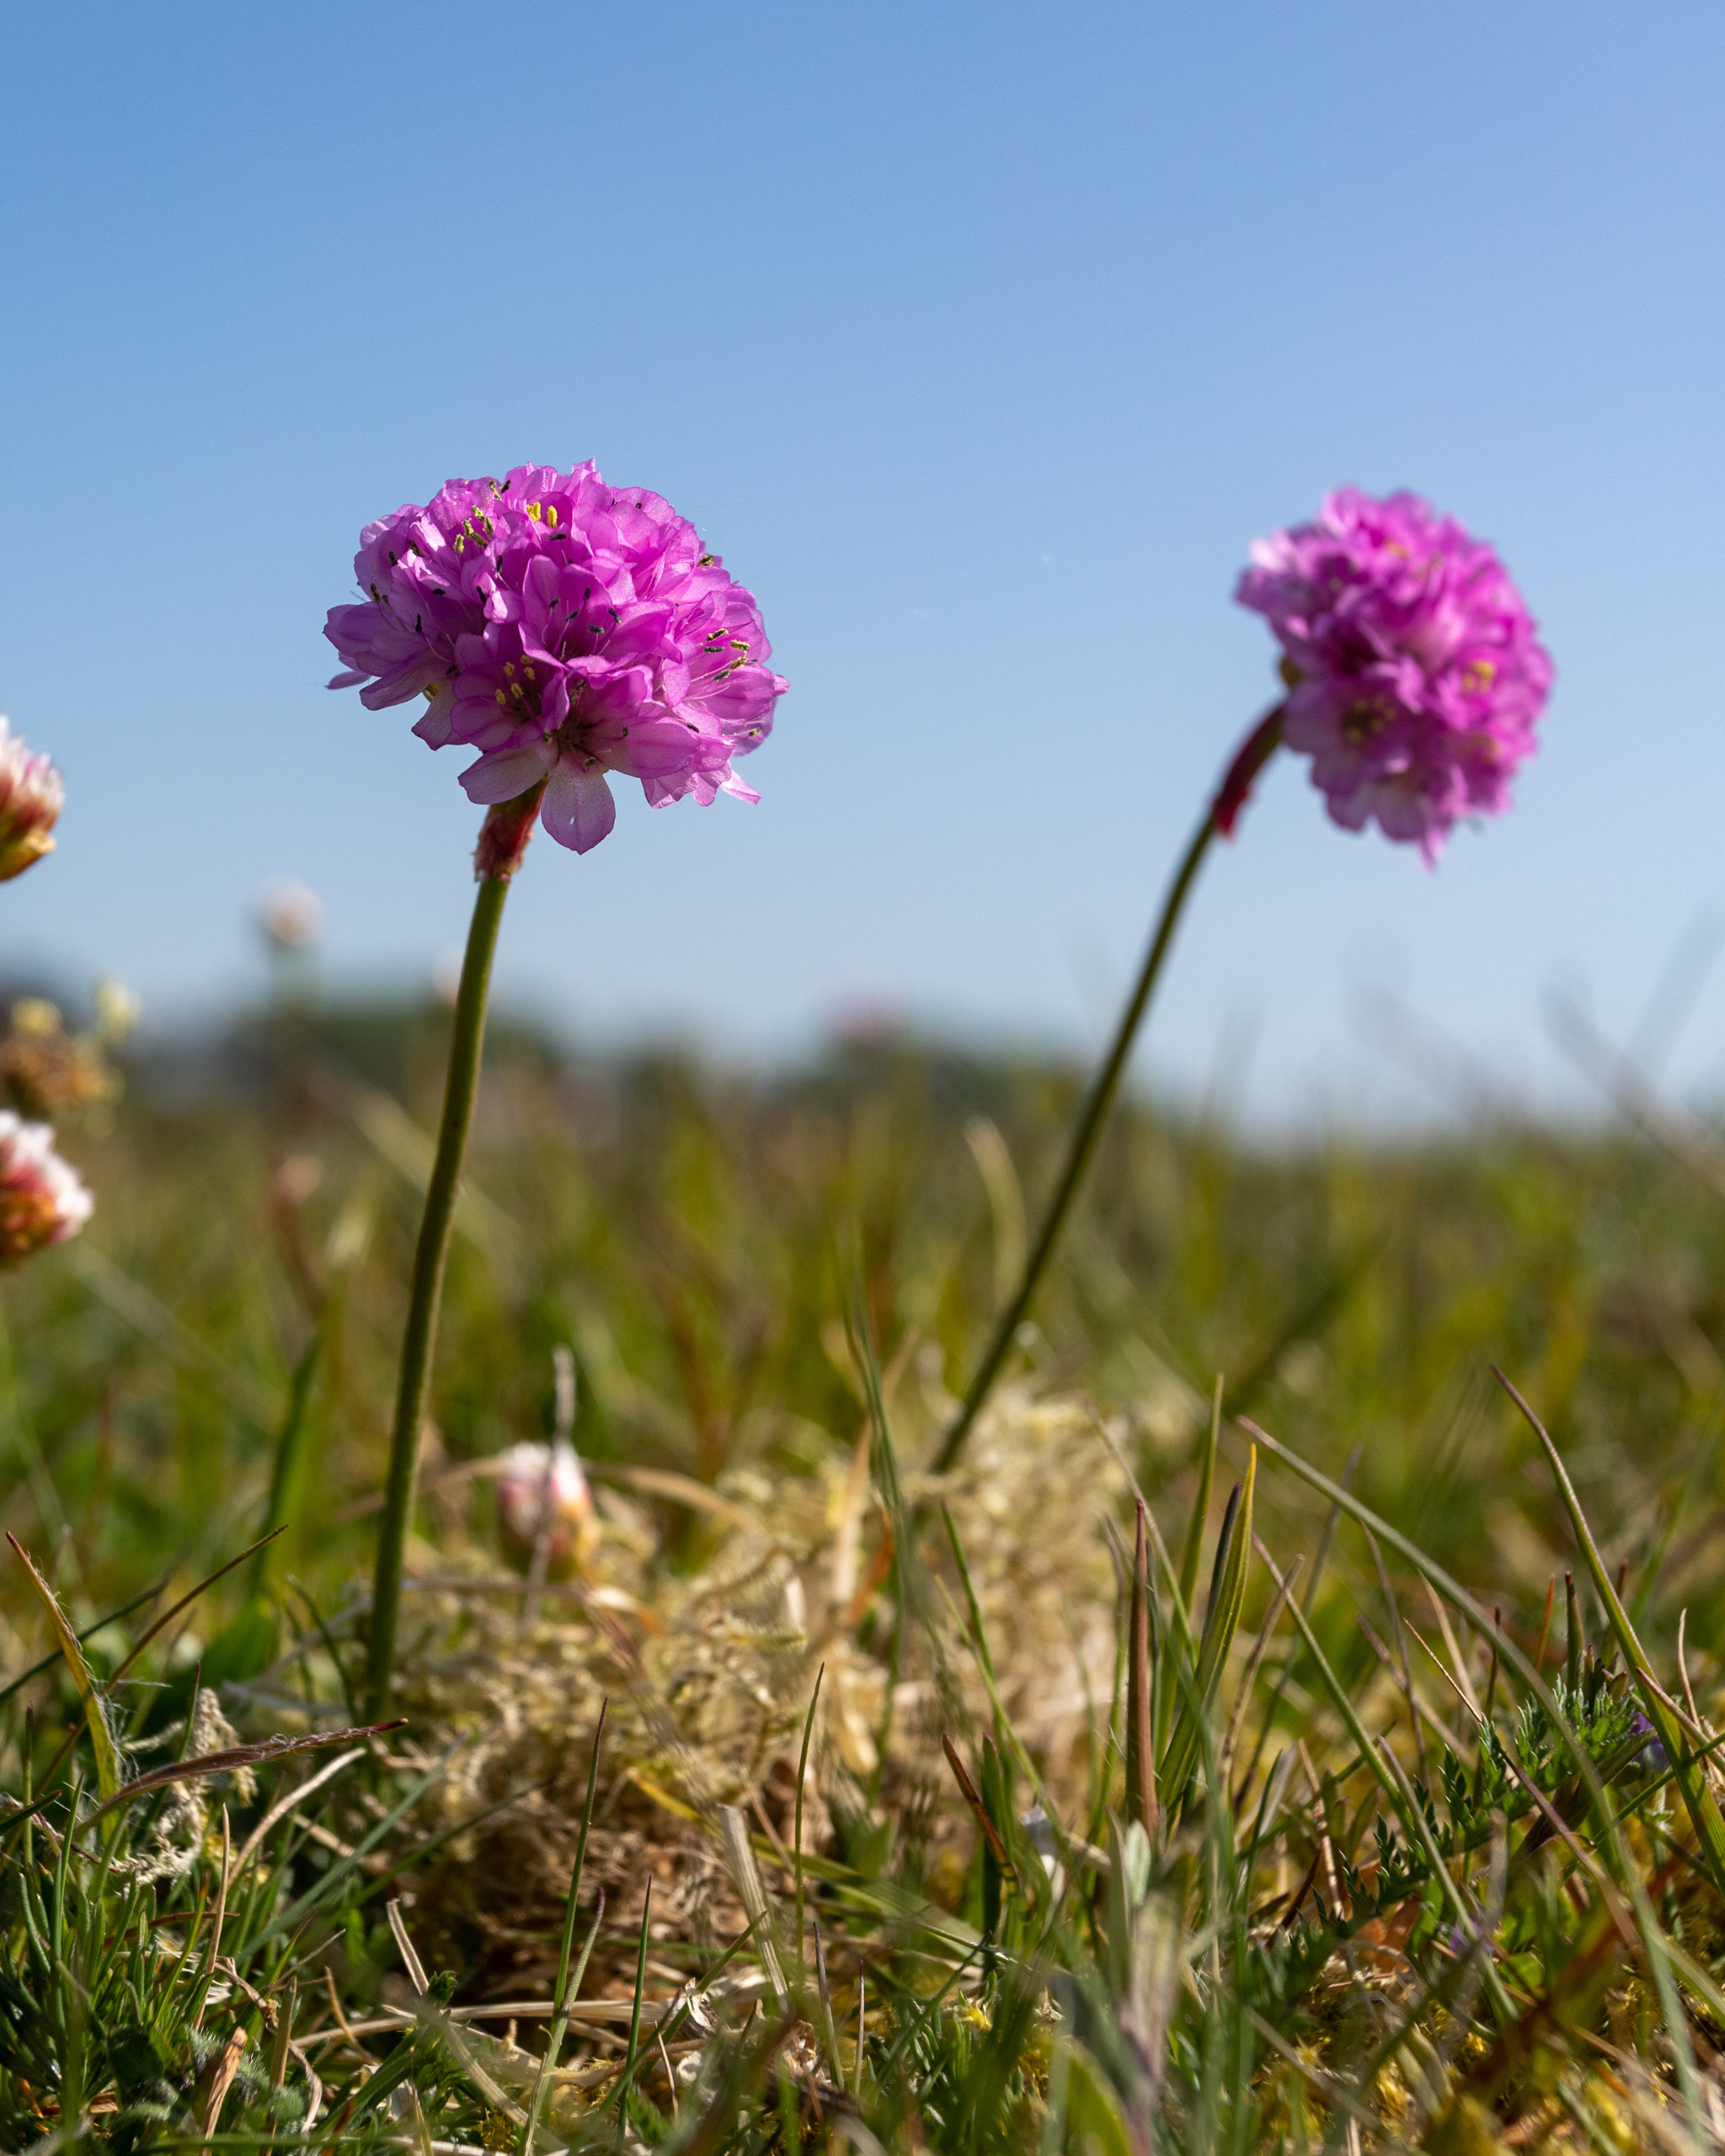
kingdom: Plantae
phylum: Tracheophyta
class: Magnoliopsida
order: Caryophyllales
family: Plumbaginaceae
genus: Armeria
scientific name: Armeria maritima
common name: Engelskgræs
